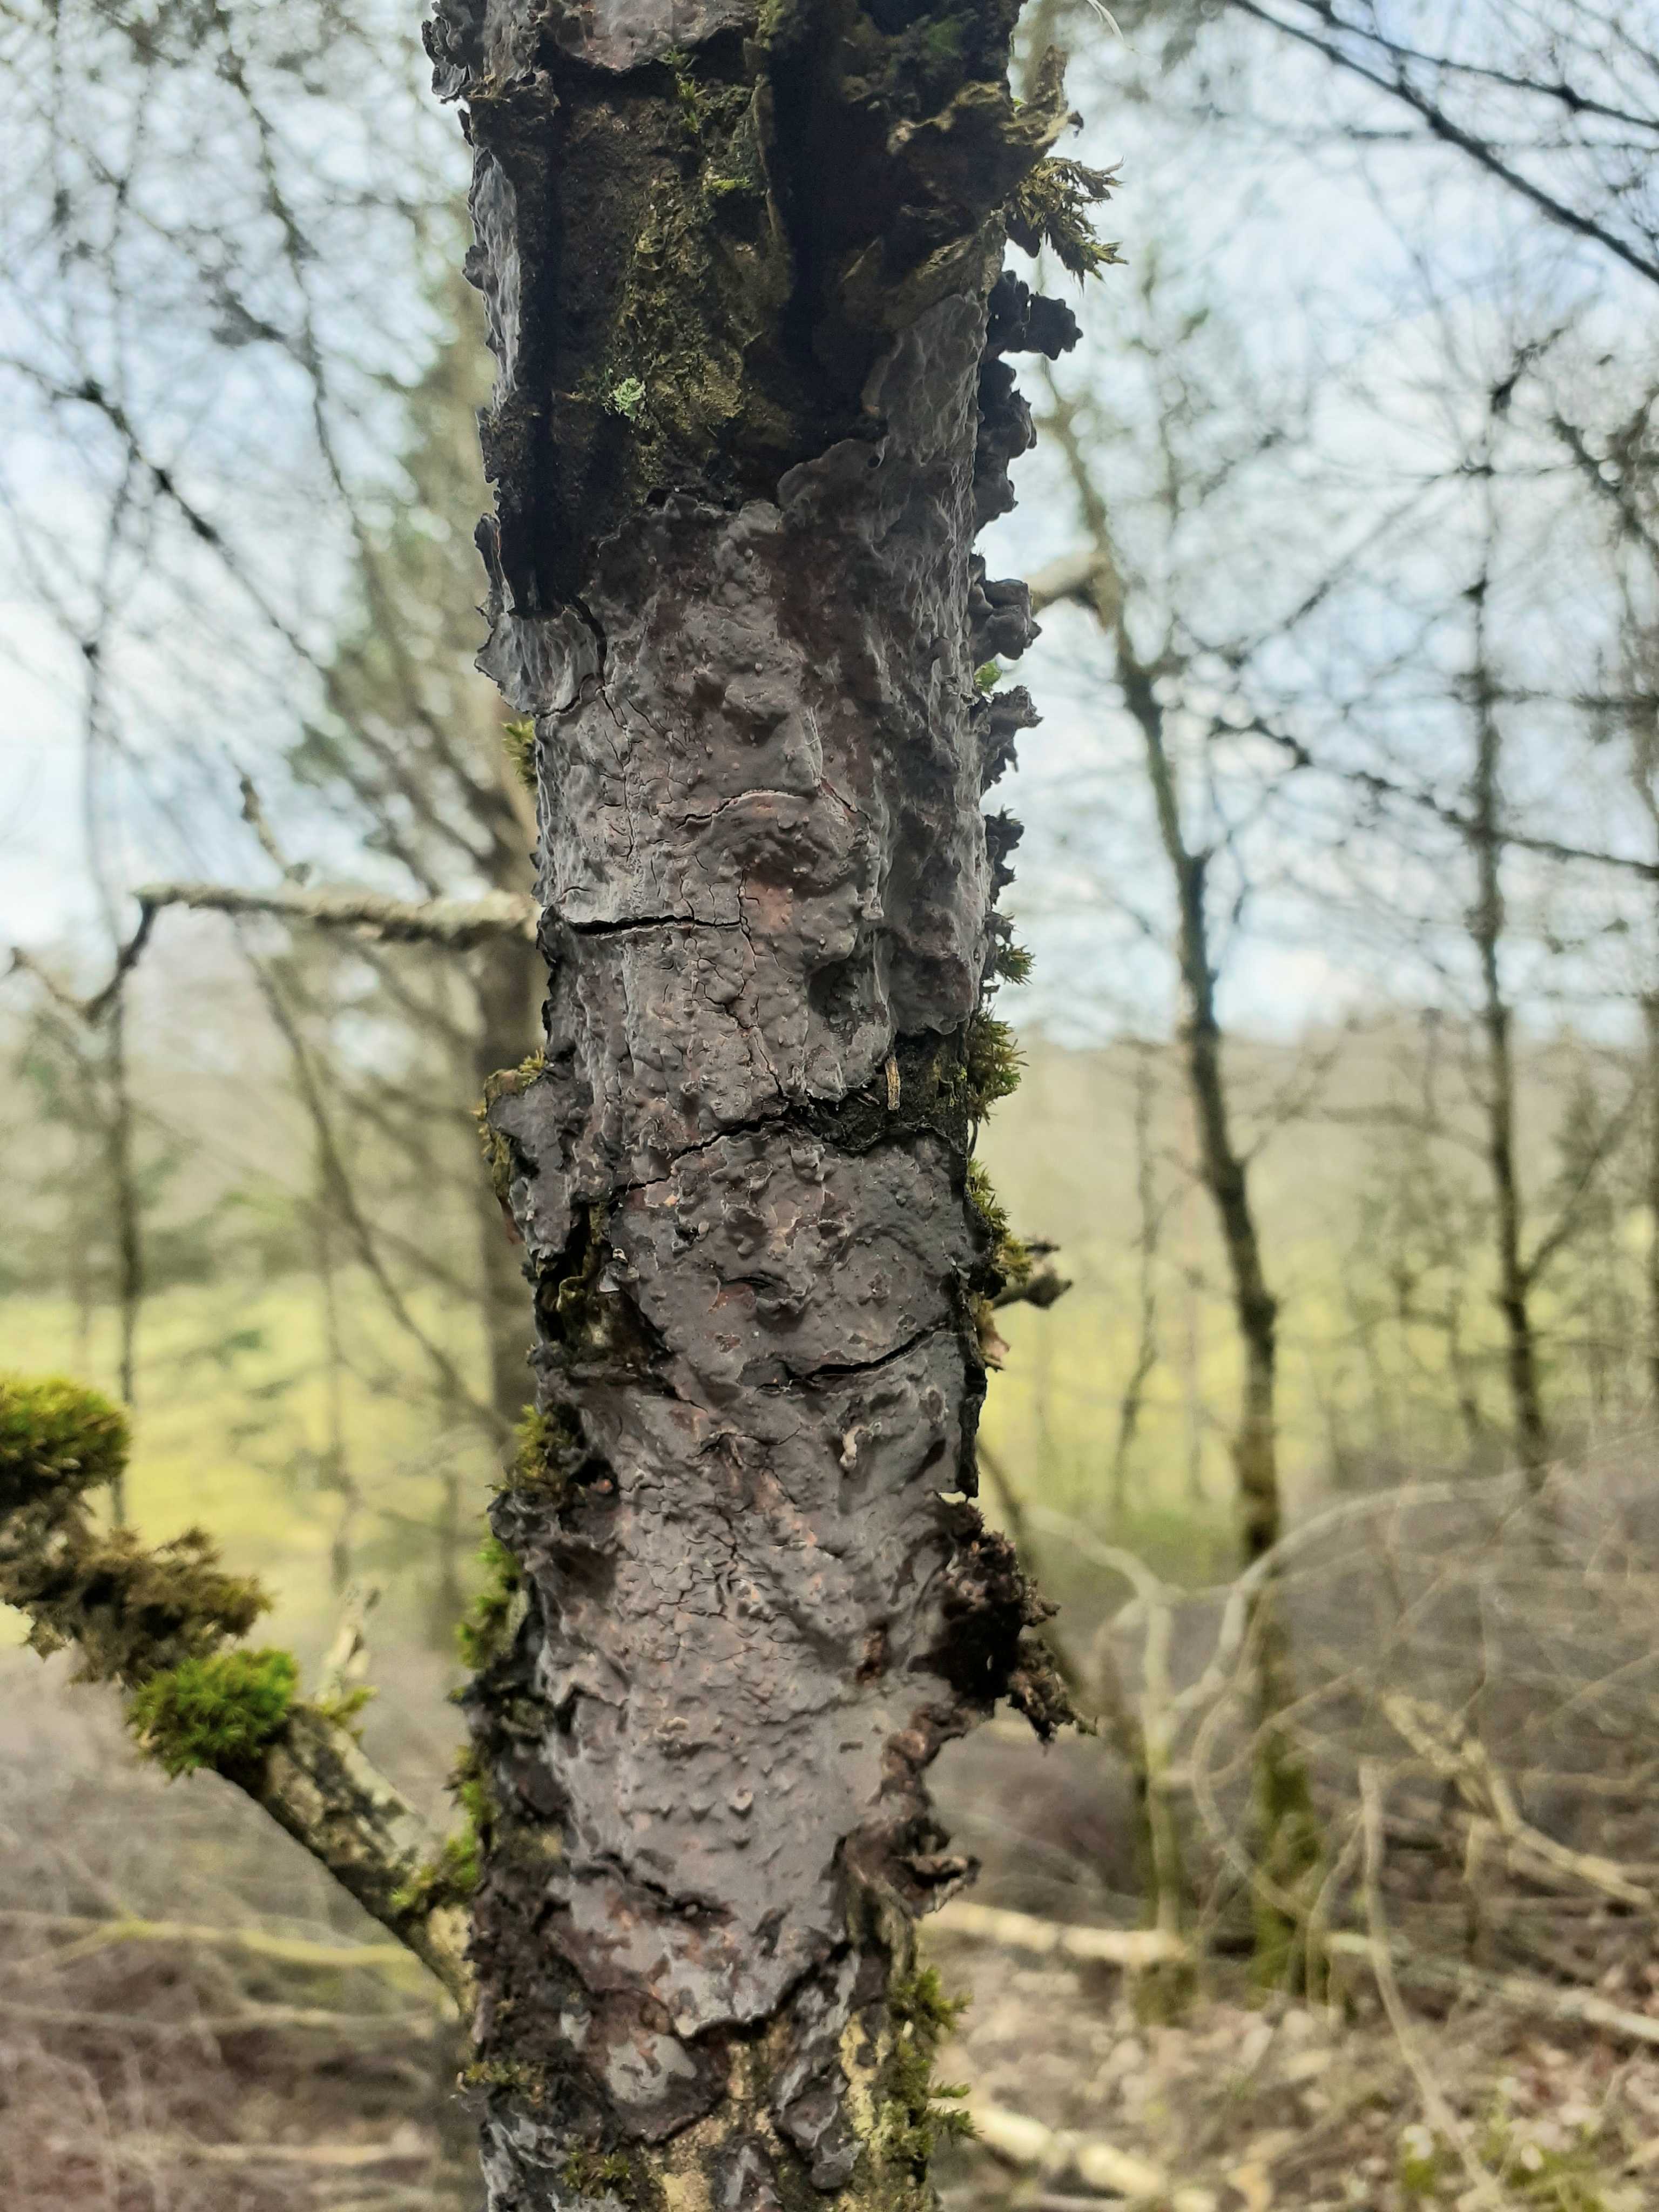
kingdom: Fungi
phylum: Basidiomycota
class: Agaricomycetes
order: Russulales
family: Peniophoraceae
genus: Peniophora
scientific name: Peniophora quercina
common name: ege-voksskind
